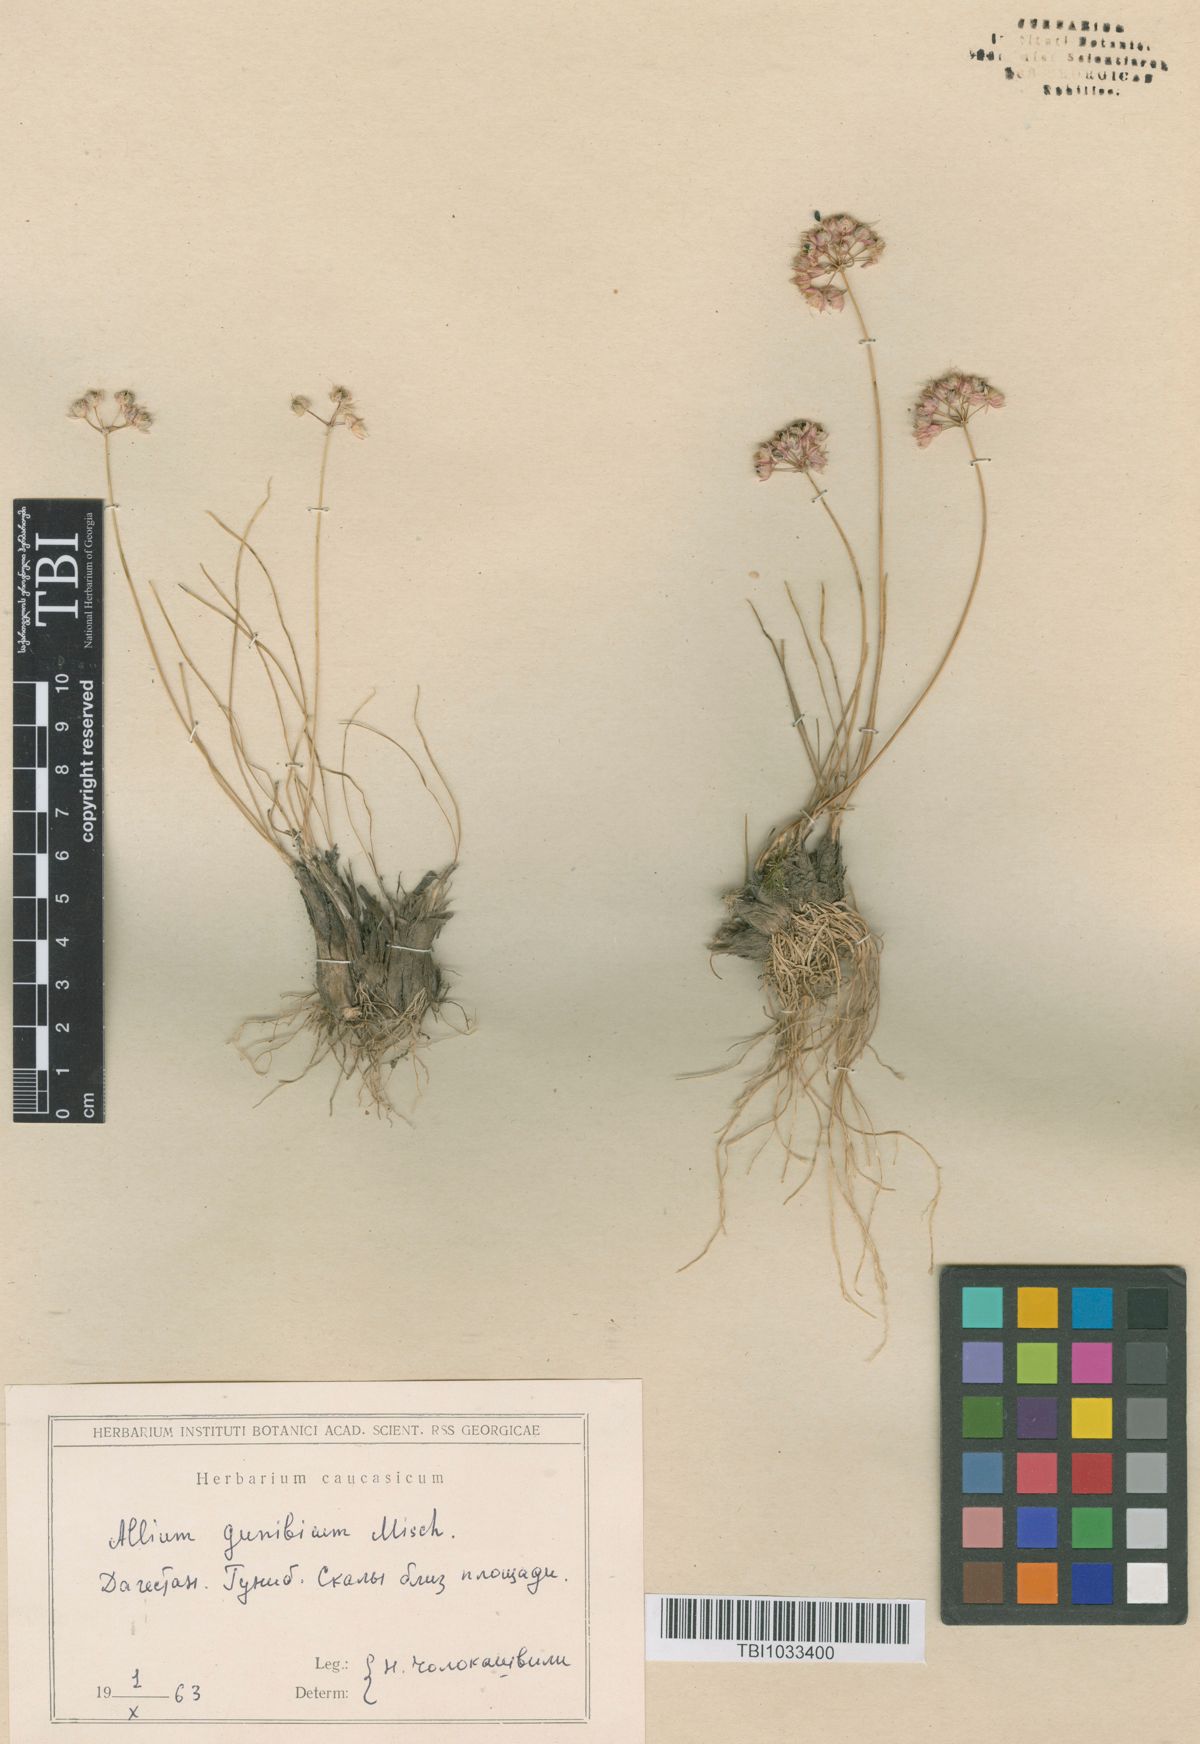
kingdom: Plantae
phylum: Tracheophyta
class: Liliopsida
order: Asparagales
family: Amaryllidaceae
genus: Allium
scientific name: Allium gunibicum
